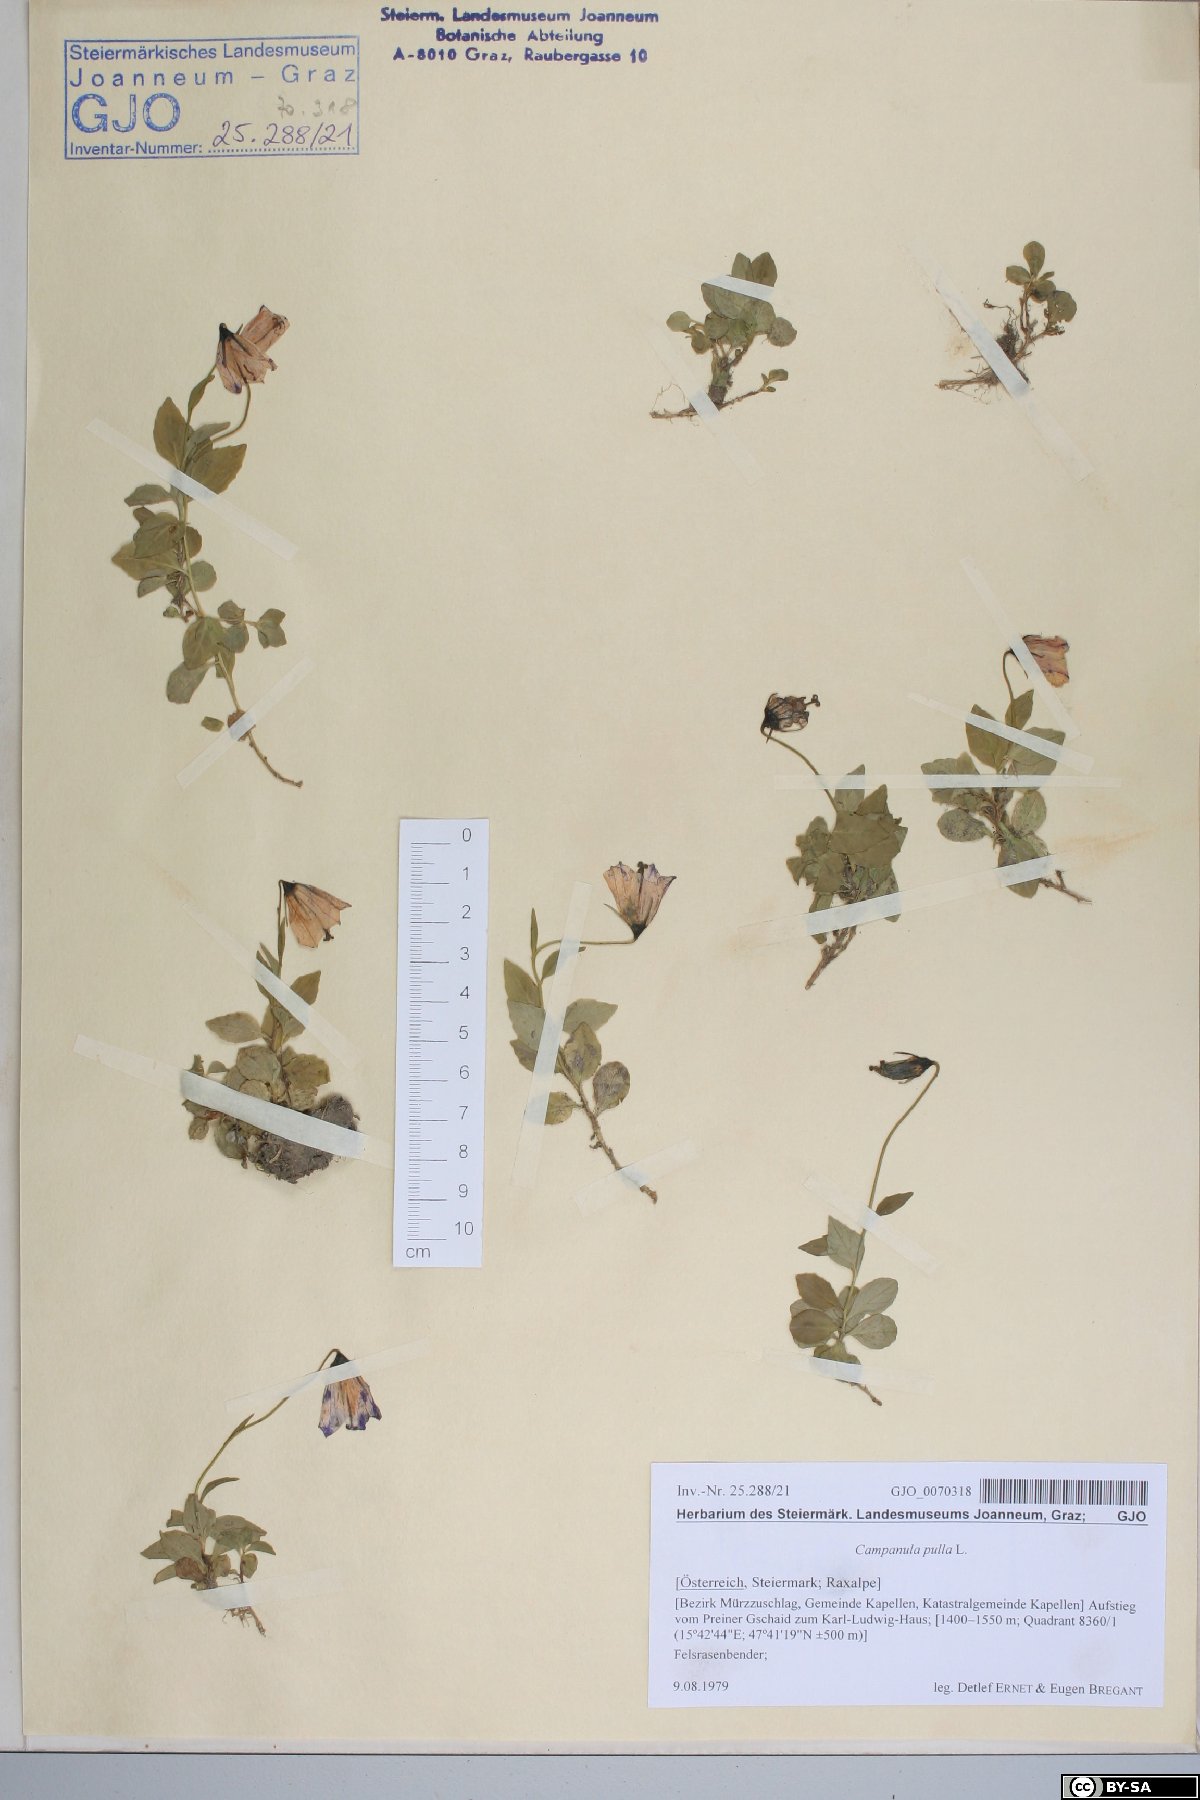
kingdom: Plantae
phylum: Tracheophyta
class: Magnoliopsida
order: Asterales
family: Campanulaceae
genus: Campanula
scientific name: Campanula pulla
